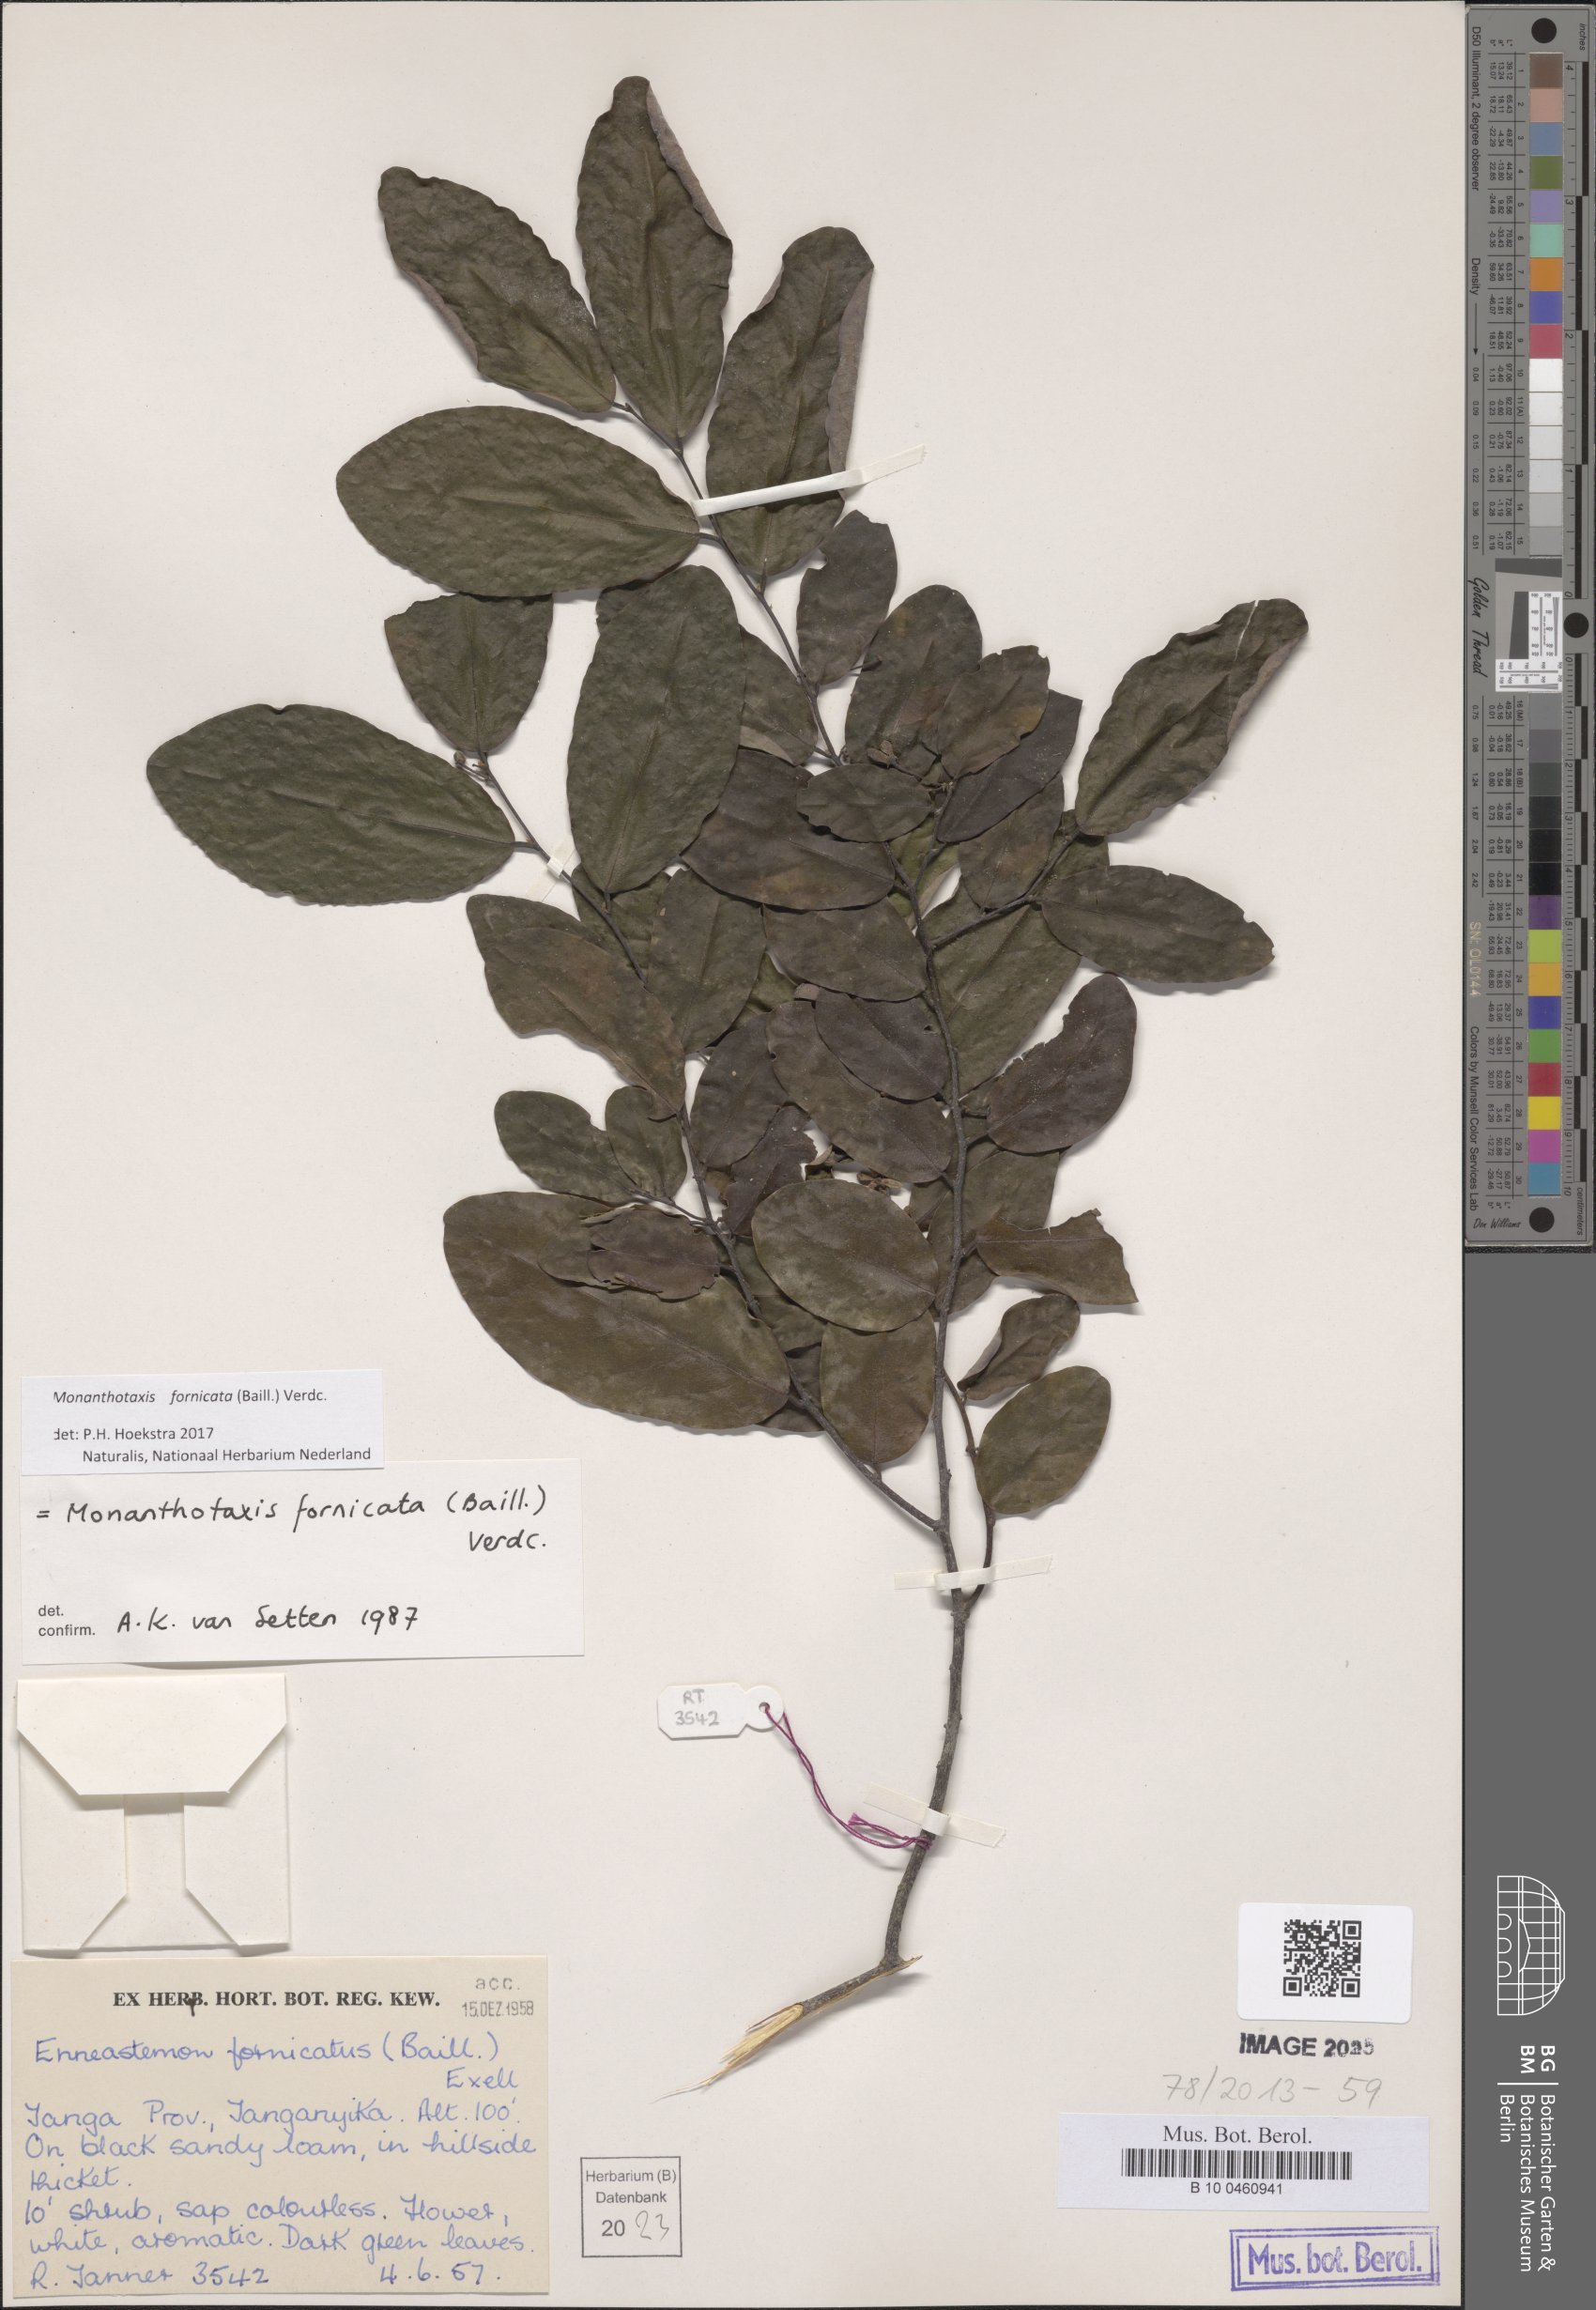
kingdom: Plantae
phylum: Tracheophyta
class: Magnoliopsida
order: Magnoliales
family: Annonaceae
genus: Monanthotaxis
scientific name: Monanthotaxis fornicata
